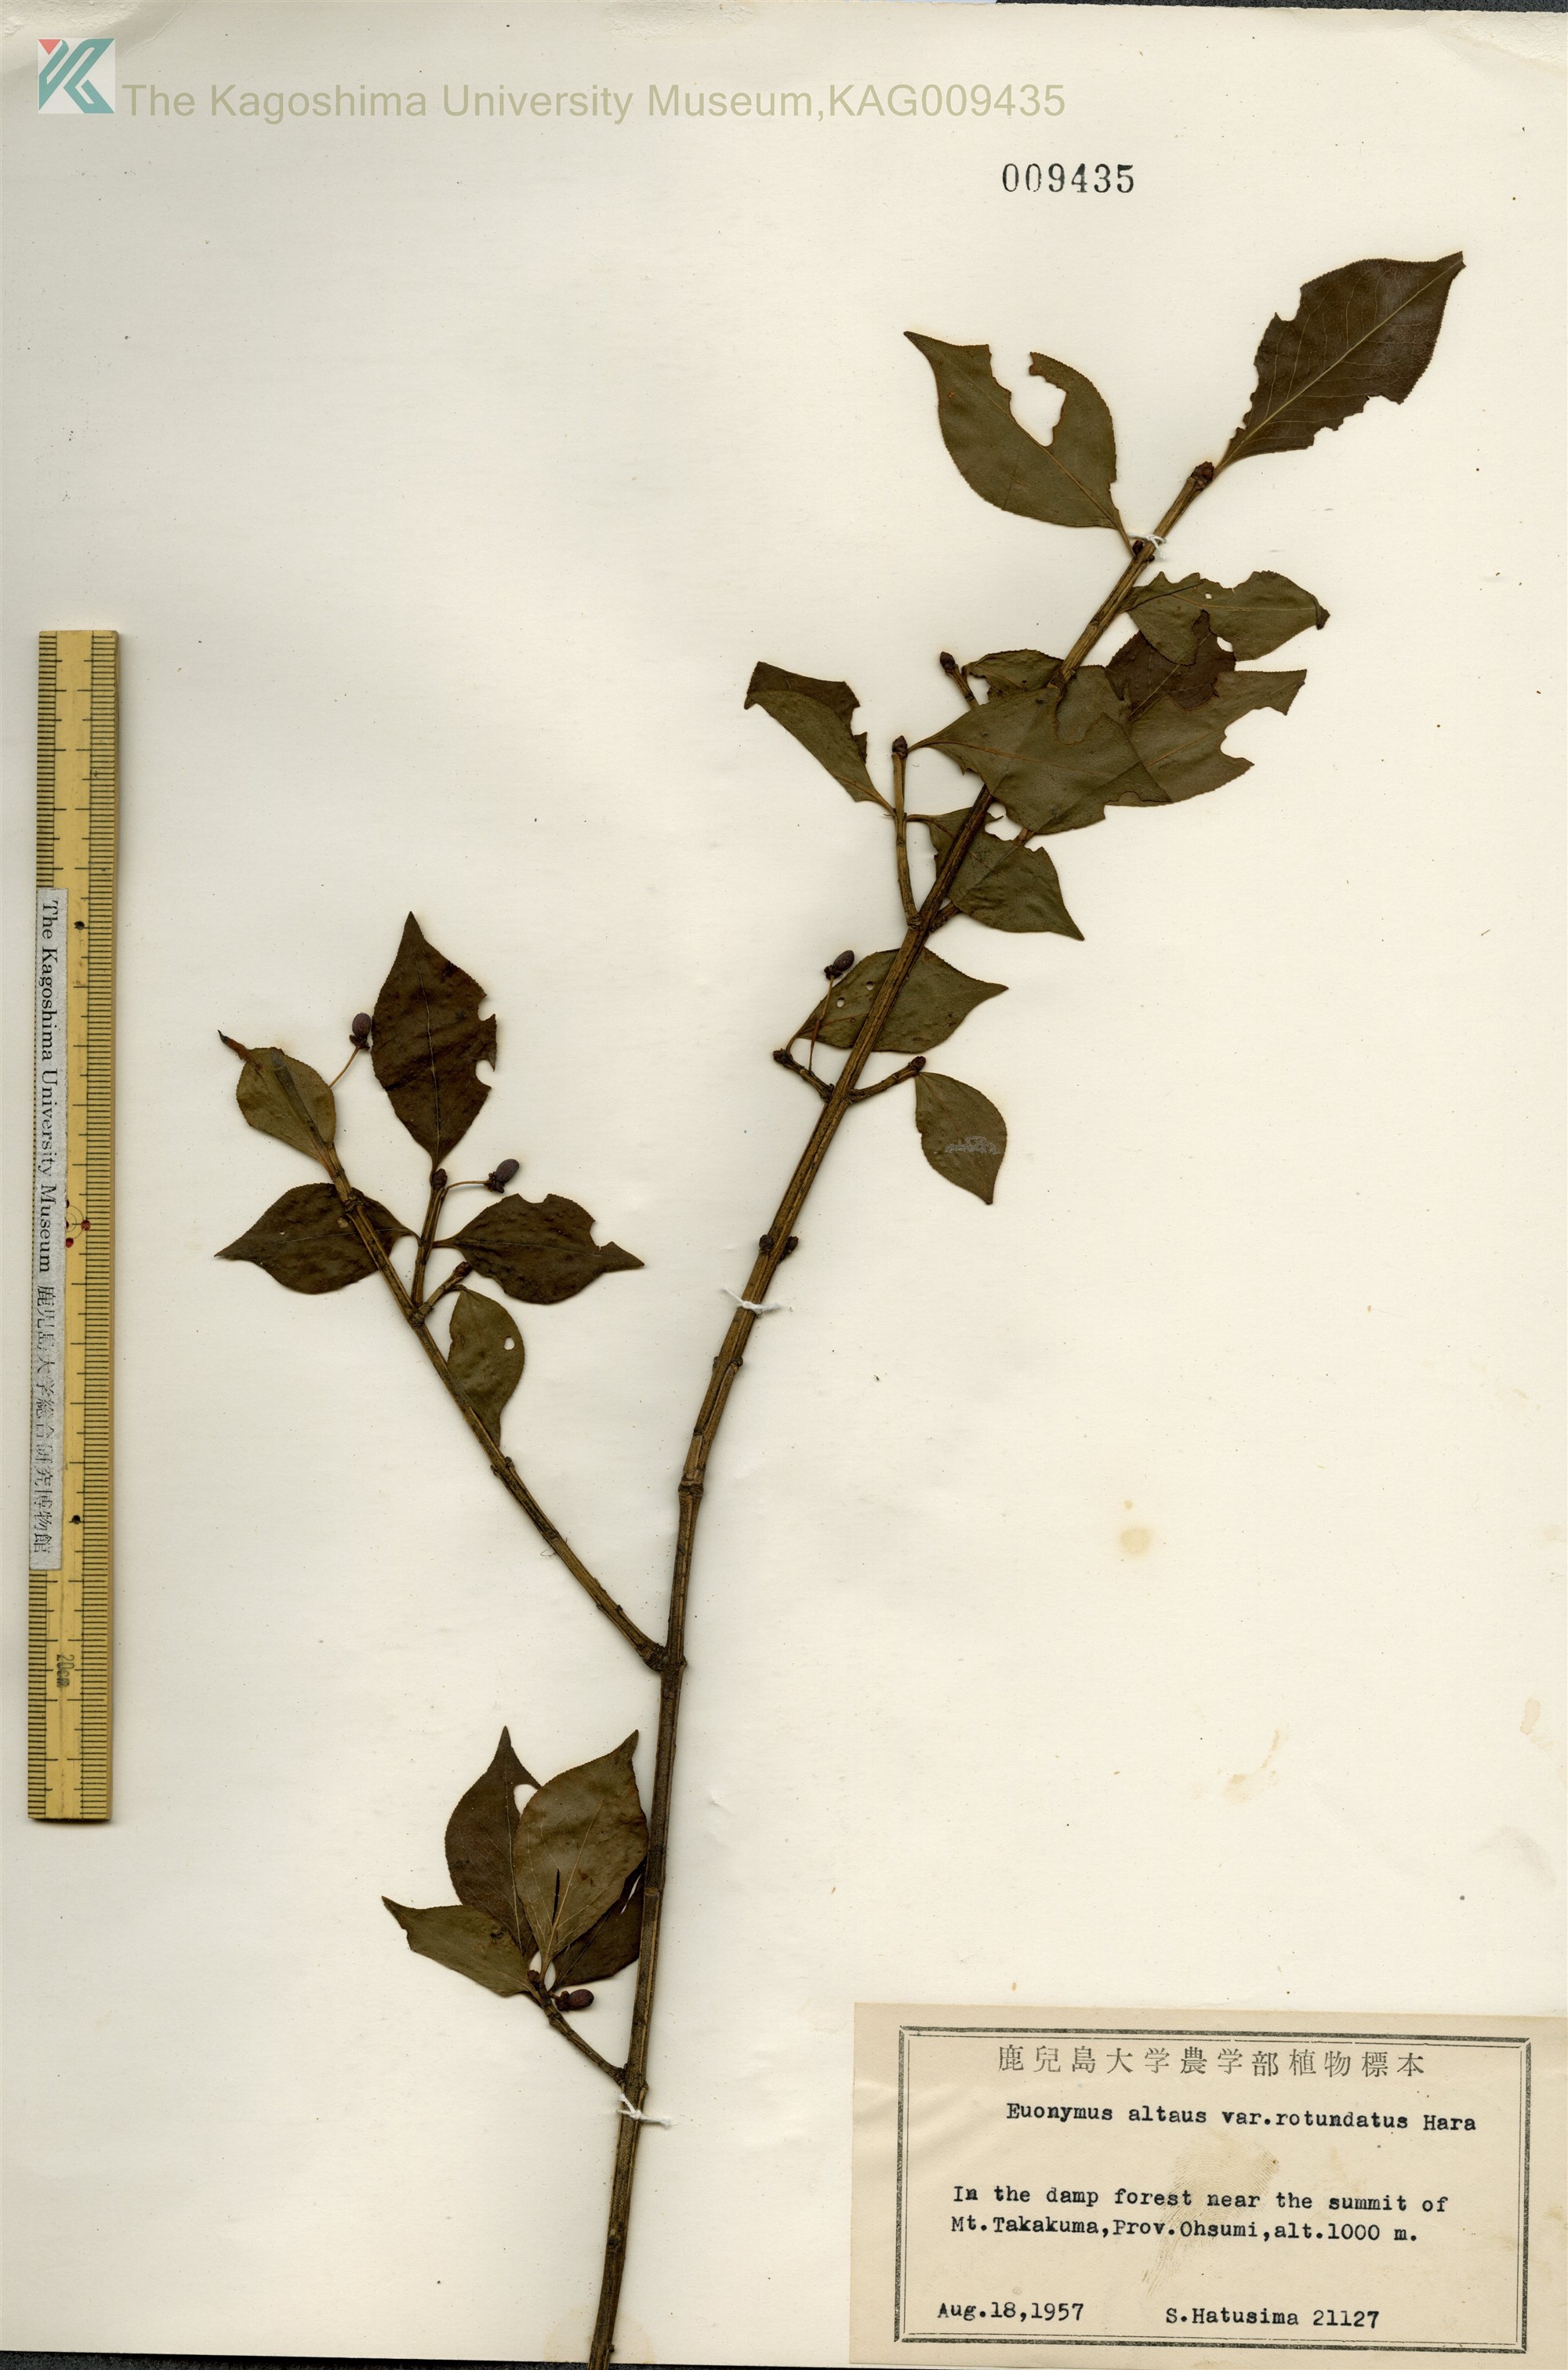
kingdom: Plantae
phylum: Tracheophyta
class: Magnoliopsida
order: Celastrales
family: Celastraceae
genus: Euonymus
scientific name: Euonymus alatus
